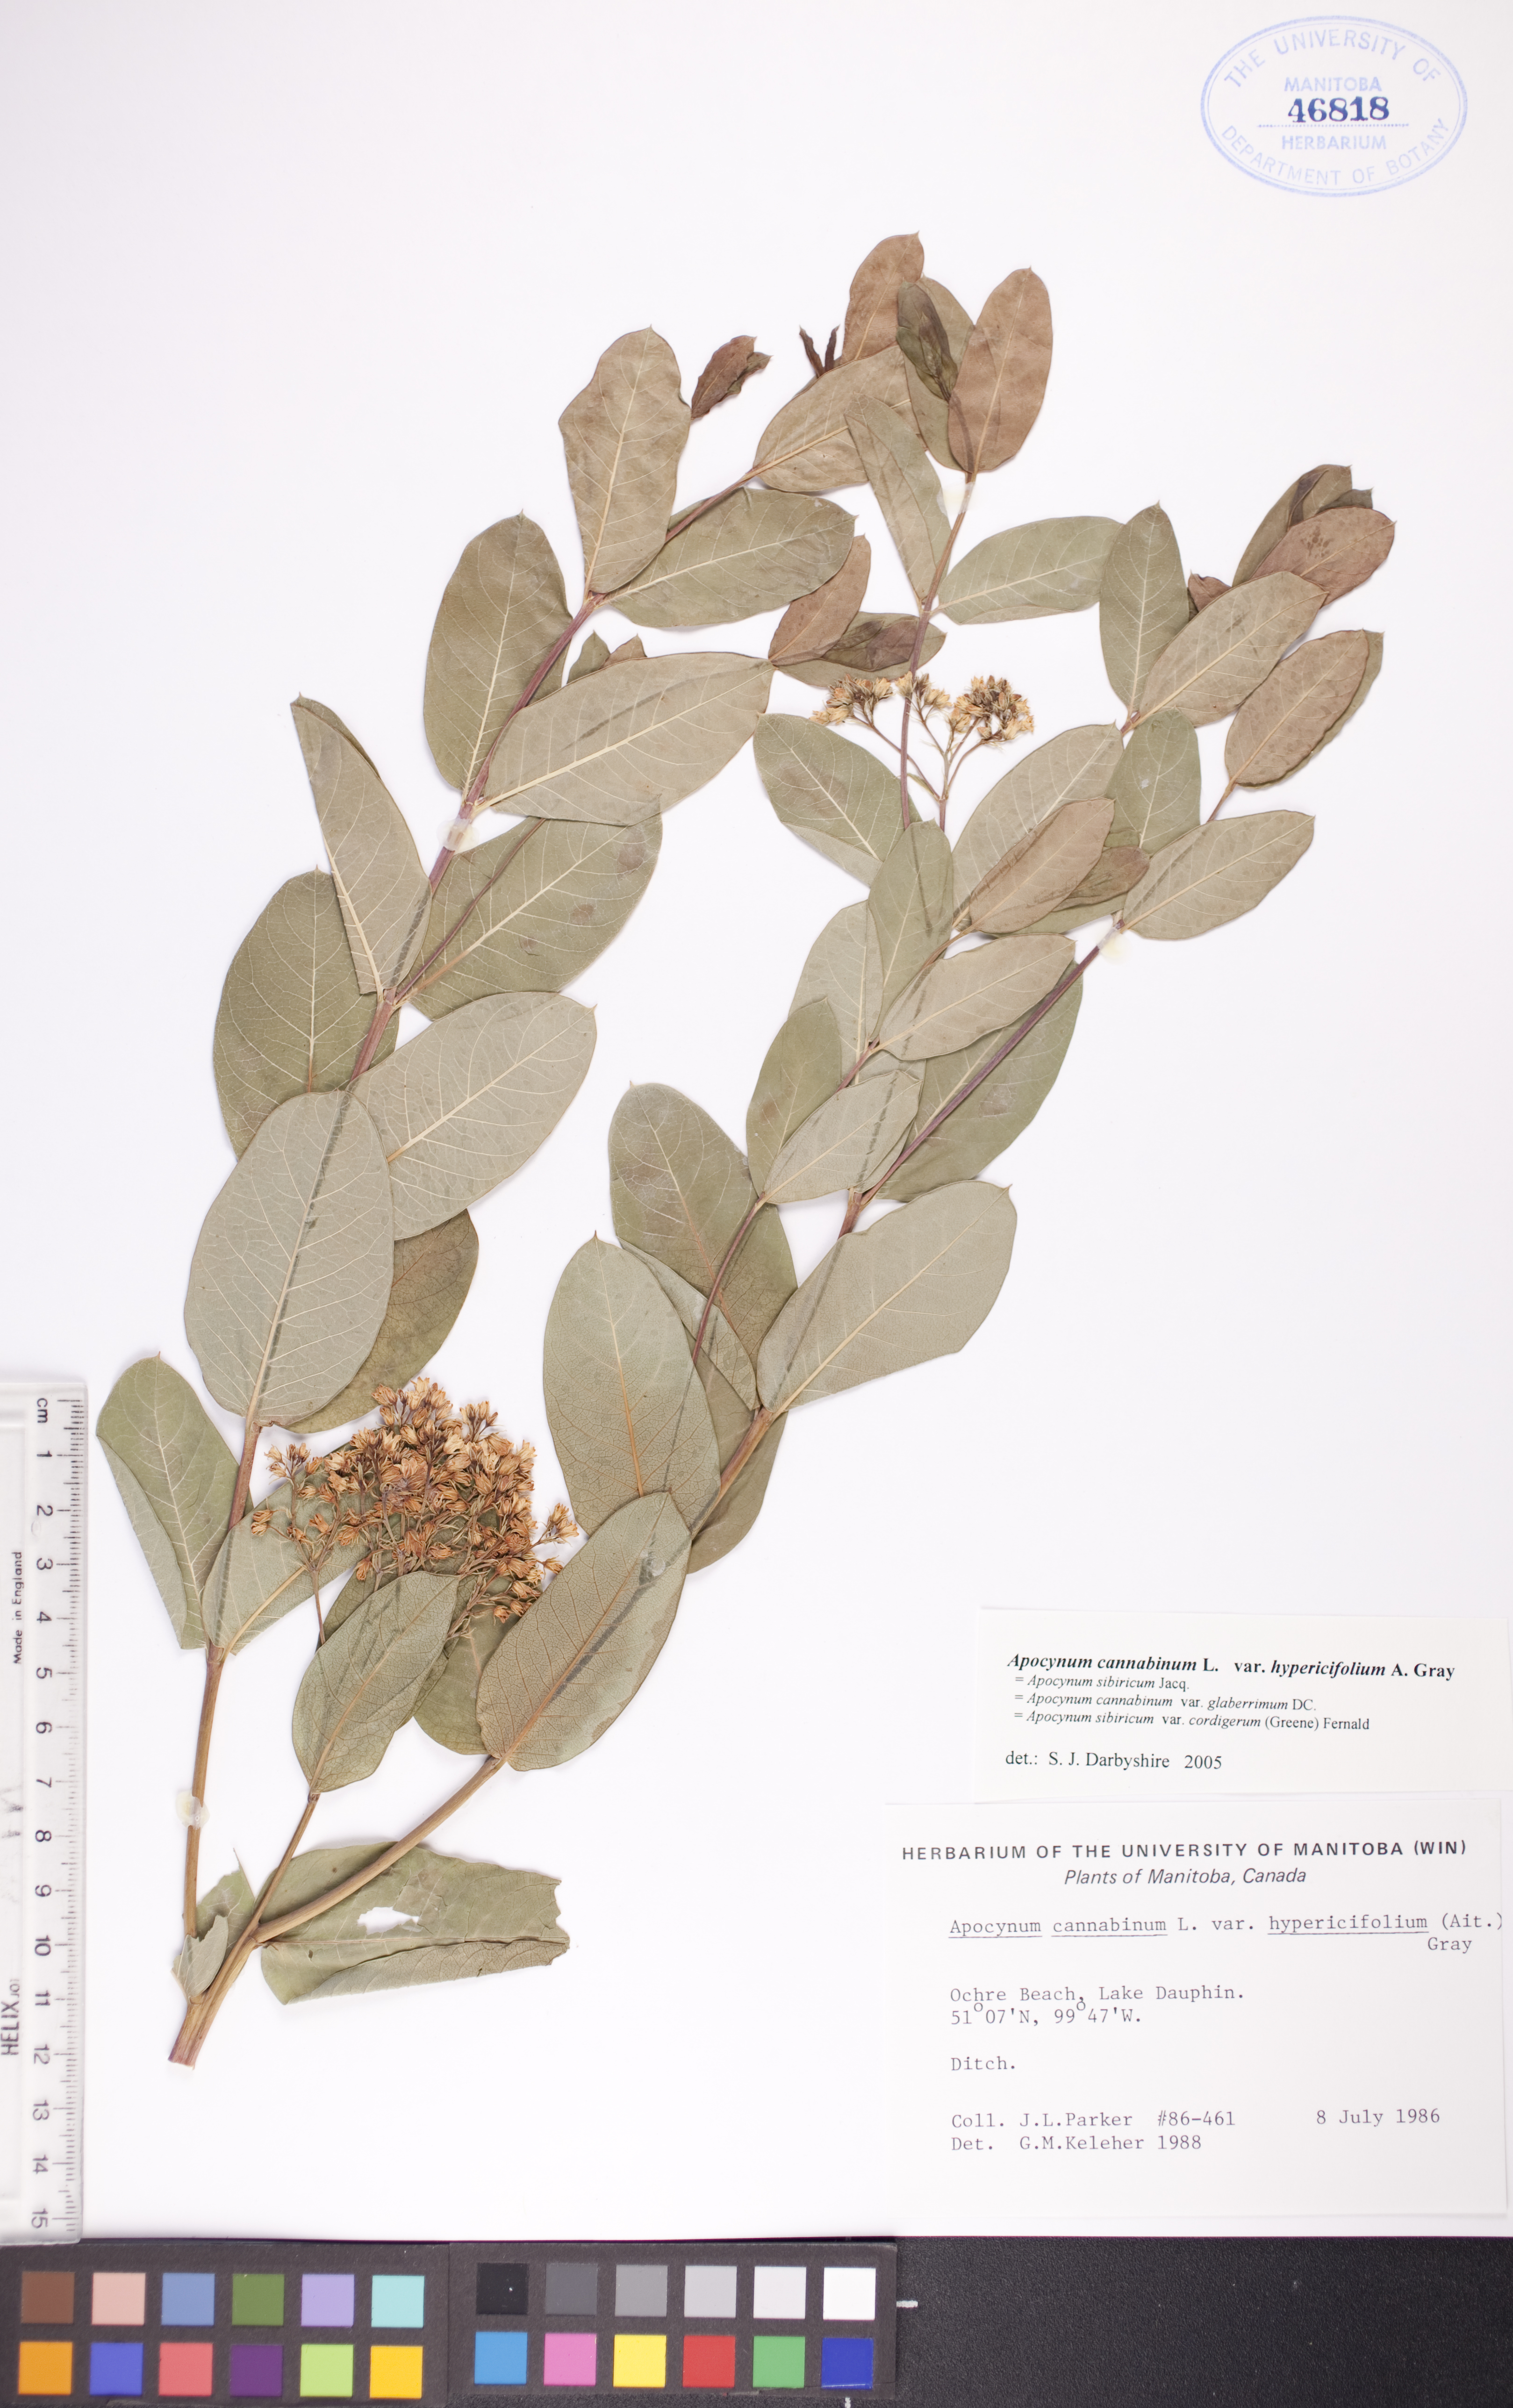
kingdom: Plantae
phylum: Tracheophyta
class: Magnoliopsida
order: Gentianales
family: Apocynaceae
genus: Apocynum
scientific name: Apocynum cannabinum
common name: Hemp dogbane
